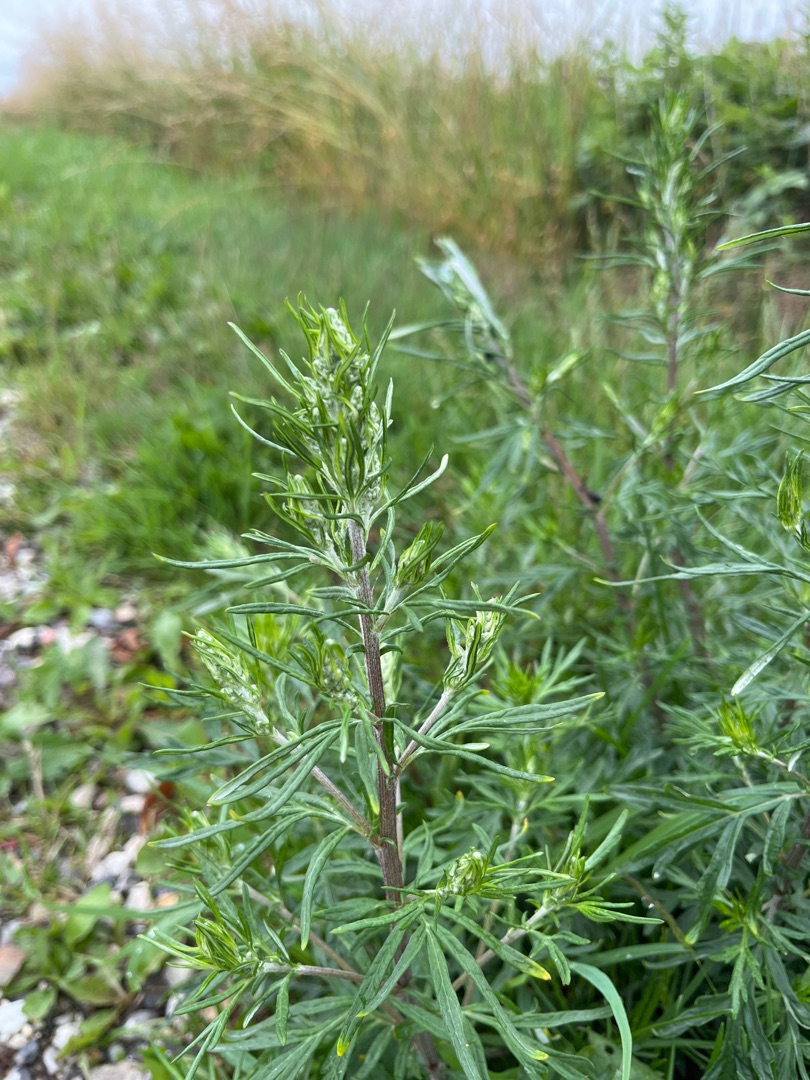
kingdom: Plantae
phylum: Tracheophyta
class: Magnoliopsida
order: Asterales
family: Asteraceae
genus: Artemisia
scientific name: Artemisia vulgaris
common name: Grå-bynke
